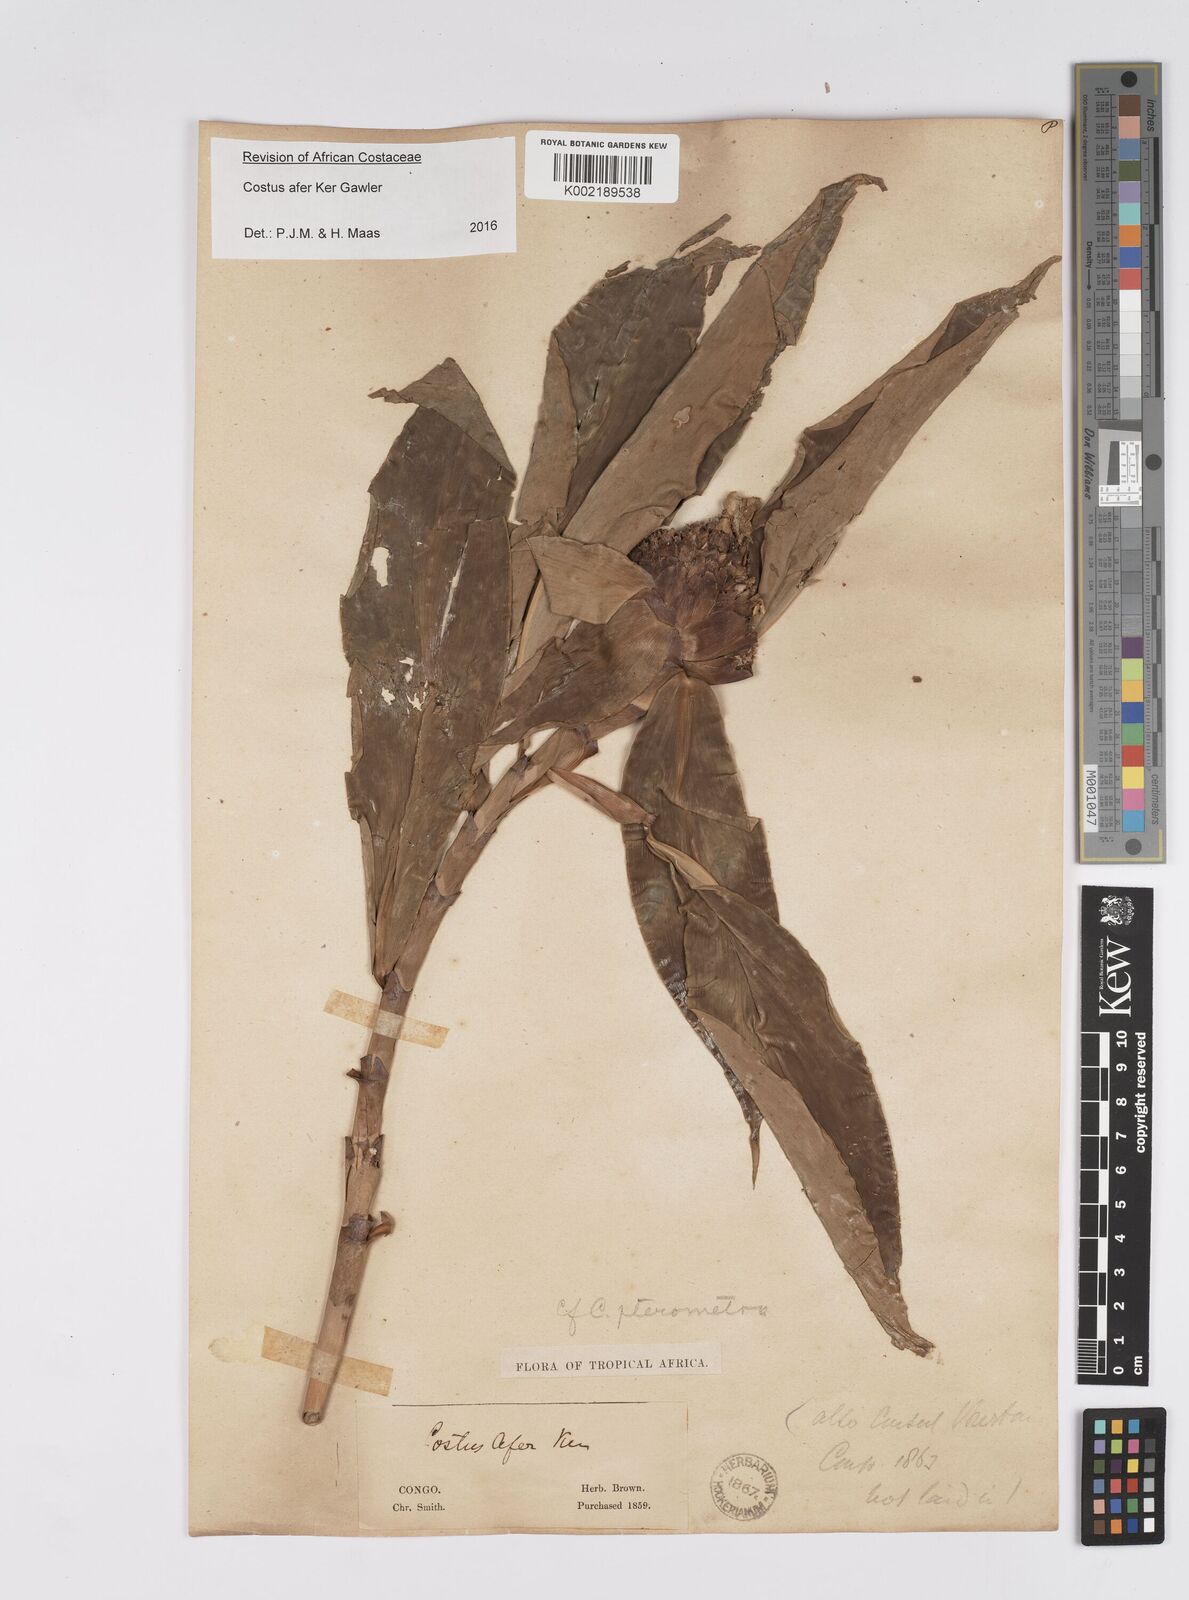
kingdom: Plantae
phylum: Tracheophyta
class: Liliopsida
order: Zingiberales
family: Costaceae
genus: Costus
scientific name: Costus dinklagei
